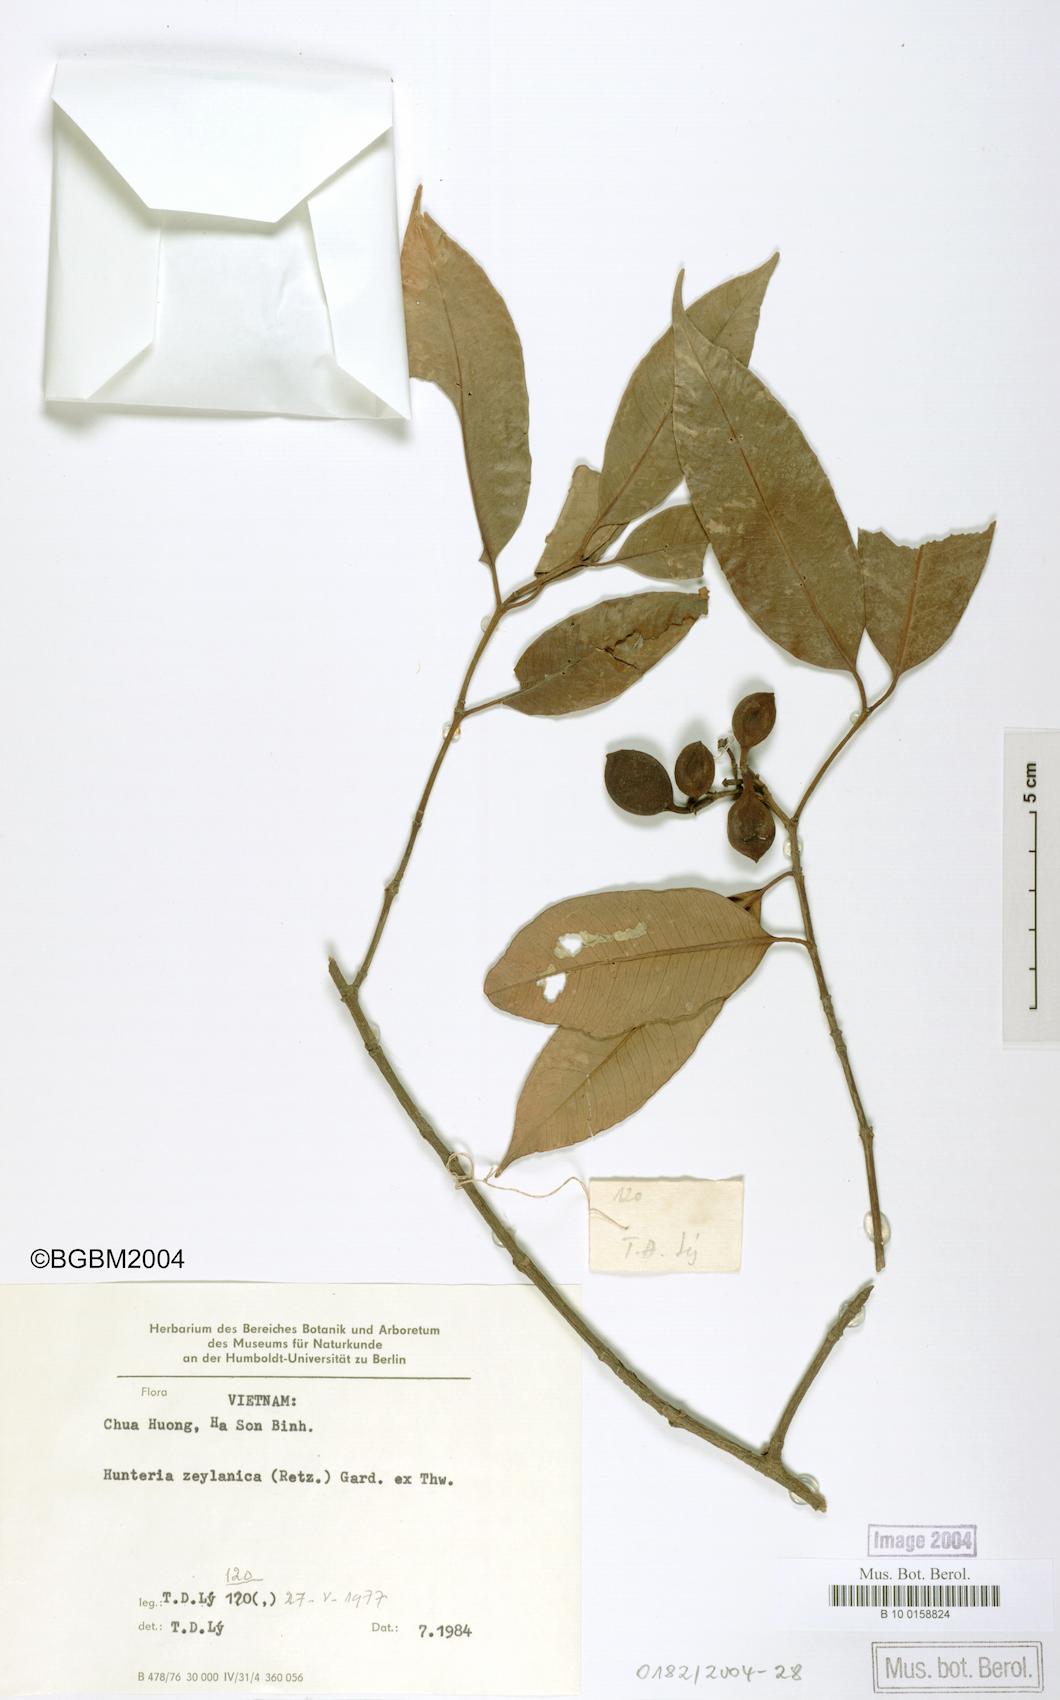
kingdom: Plantae
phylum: Tracheophyta
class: Magnoliopsida
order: Gentianales
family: Apocynaceae
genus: Hunteria
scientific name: Hunteria zeylanica
